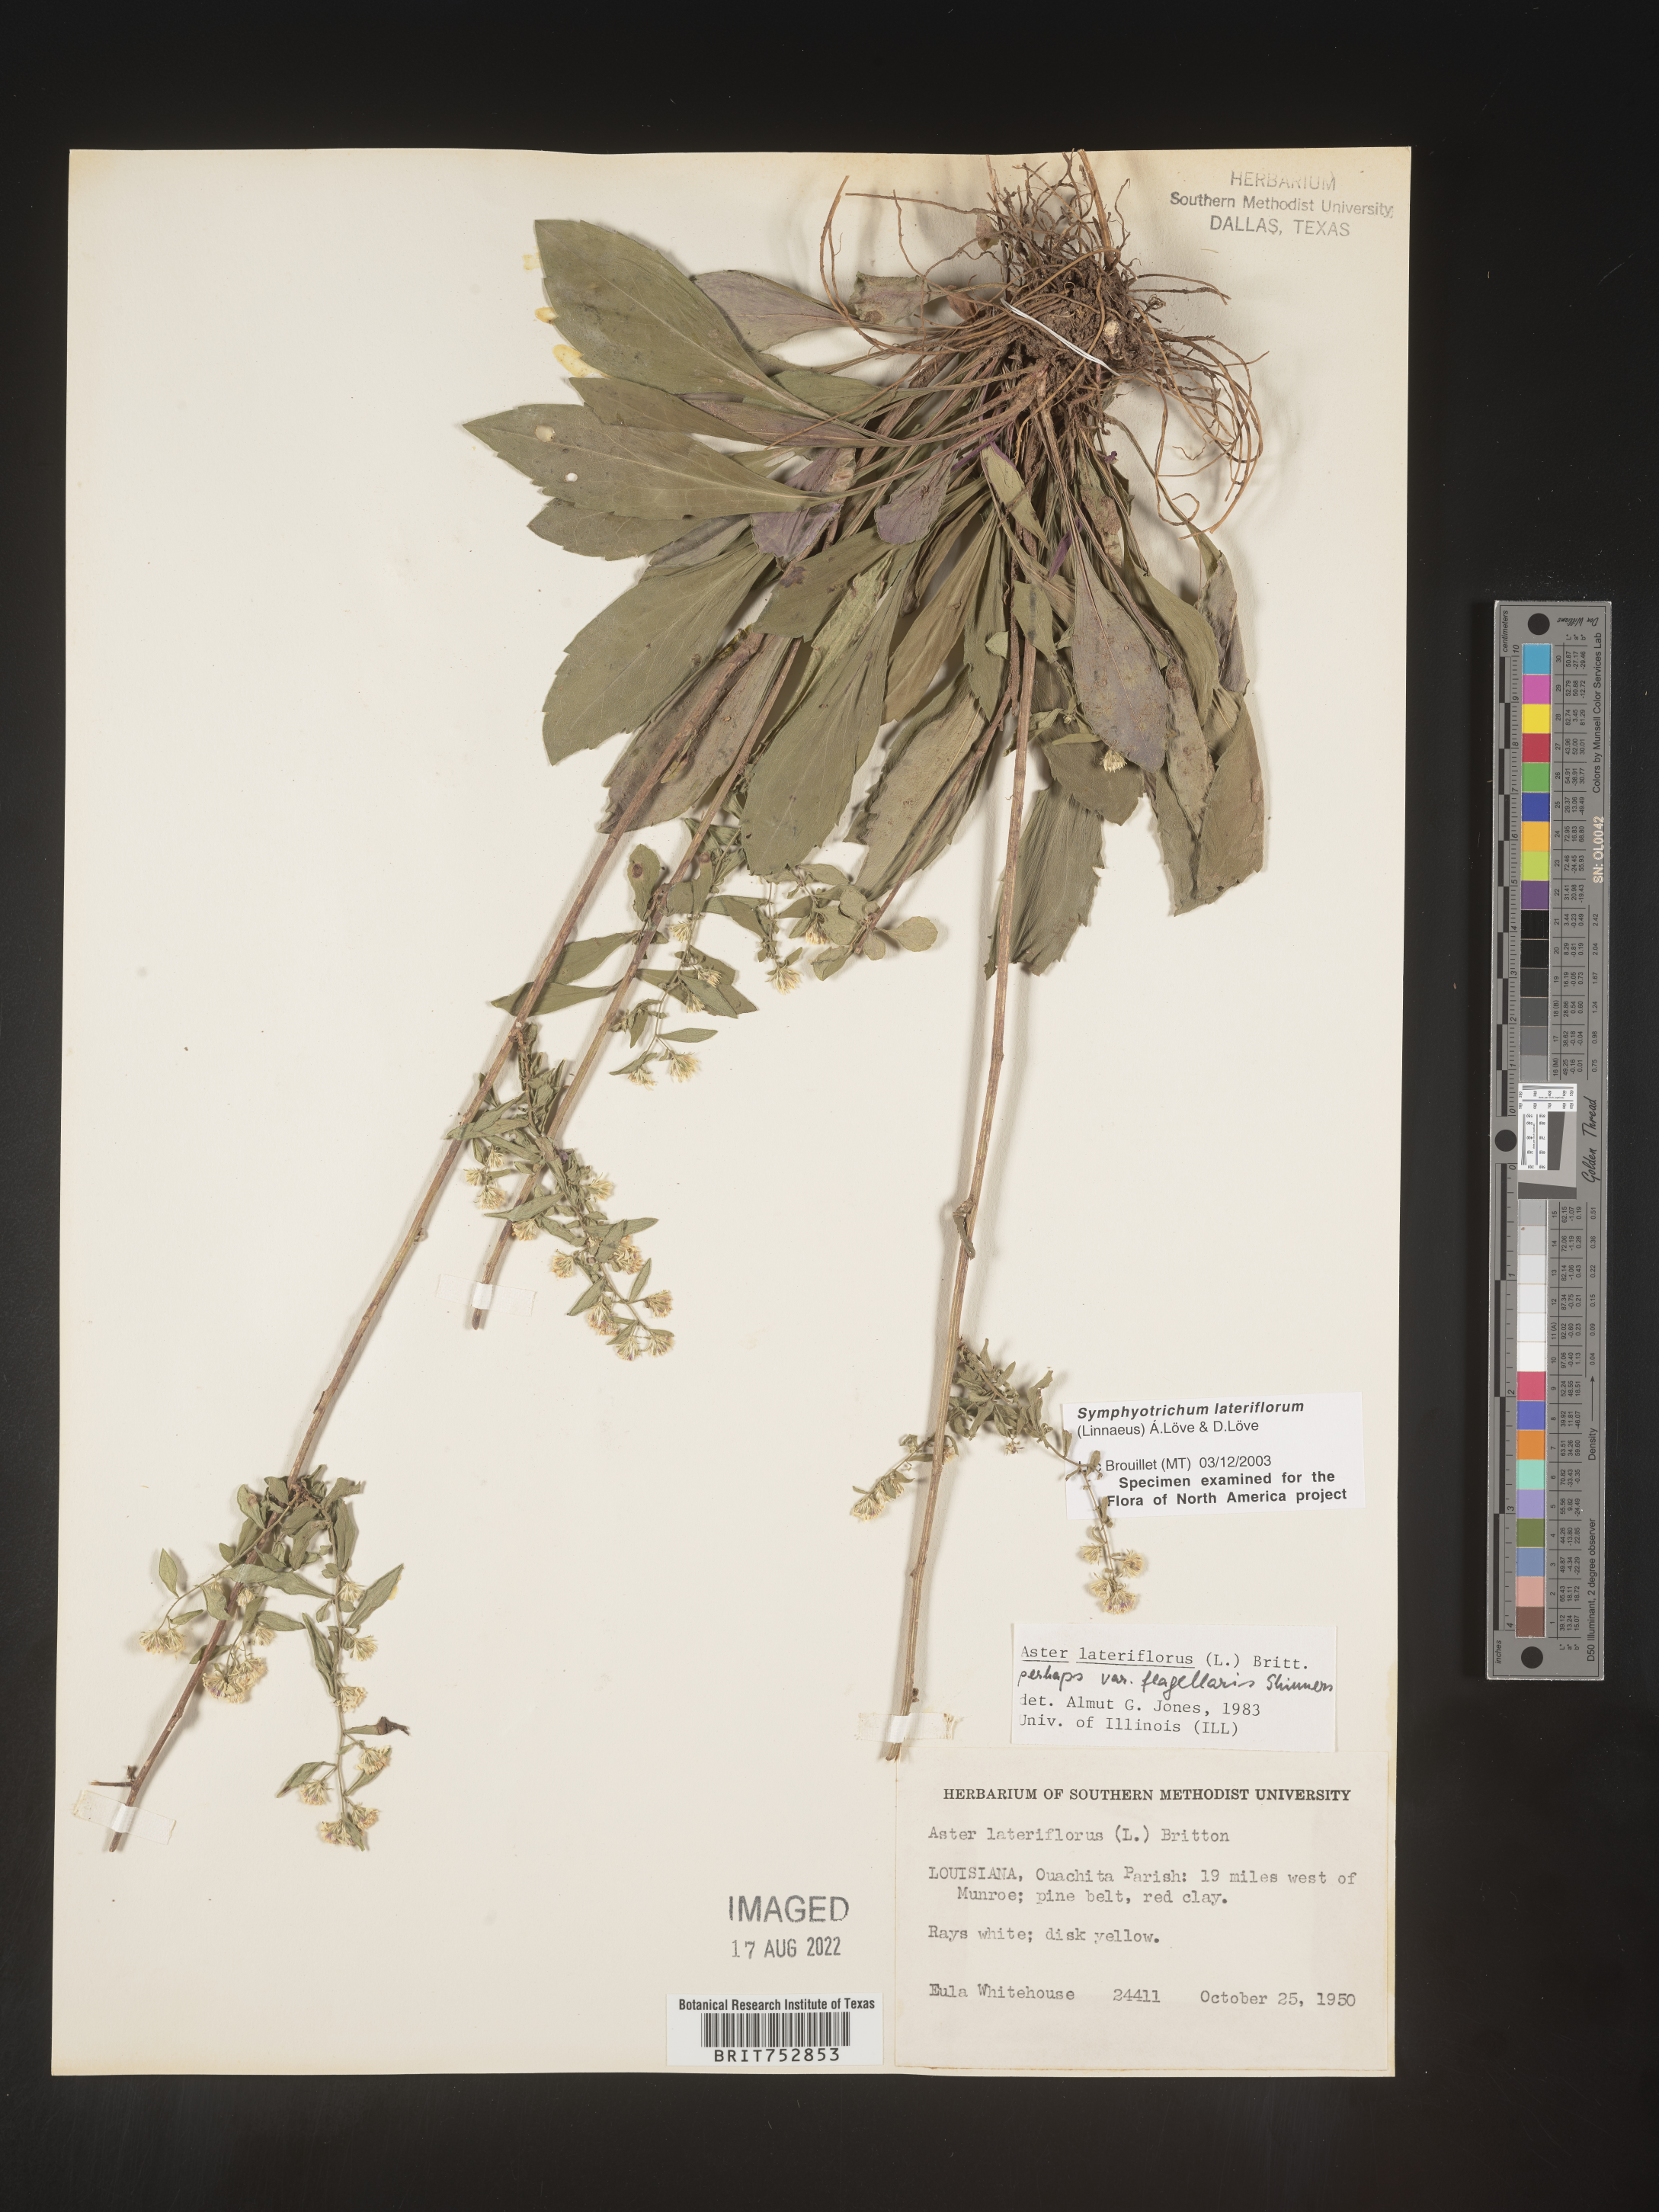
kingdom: Plantae
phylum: Tracheophyta
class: Magnoliopsida
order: Asterales
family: Asteraceae
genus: Symphyotrichum
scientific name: Symphyotrichum lateriflorum
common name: Calico aster
